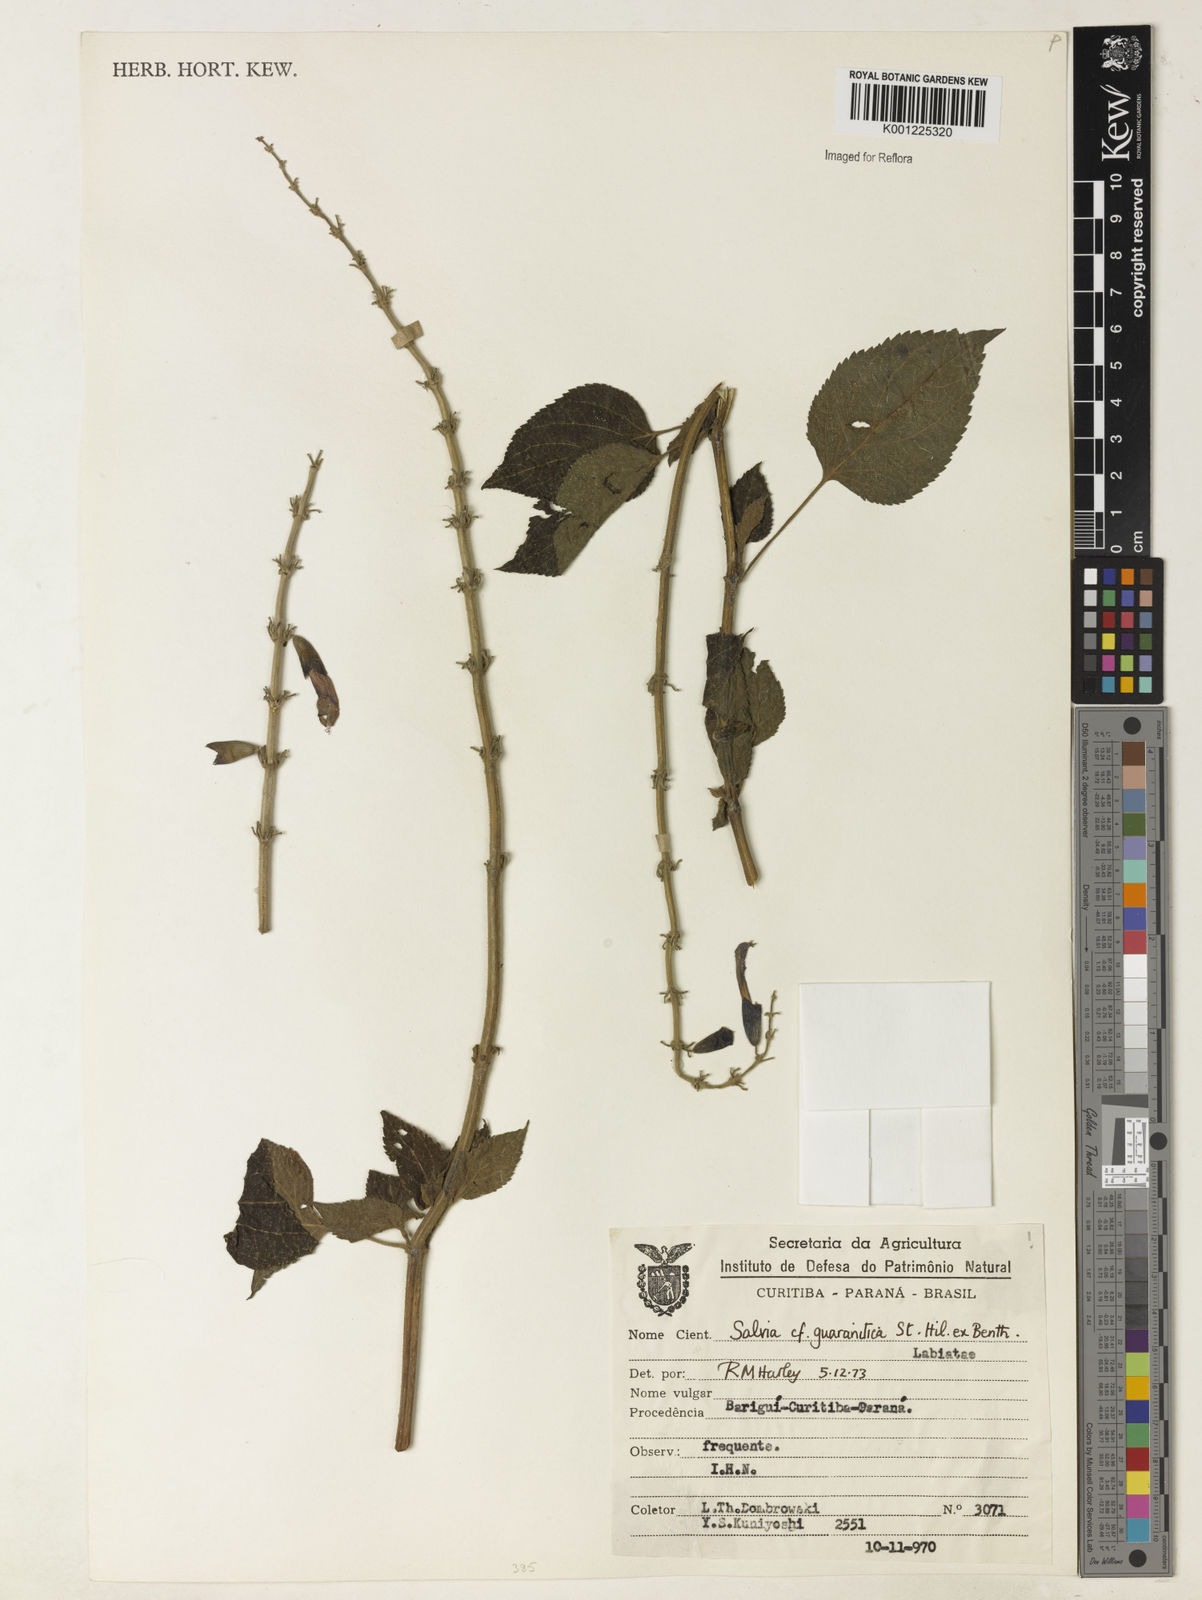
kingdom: Plantae
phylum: Tracheophyta
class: Magnoliopsida
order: Lamiales
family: Lamiaceae
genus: Salvia
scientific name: Salvia guaranitica
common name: Anise-scented sage
